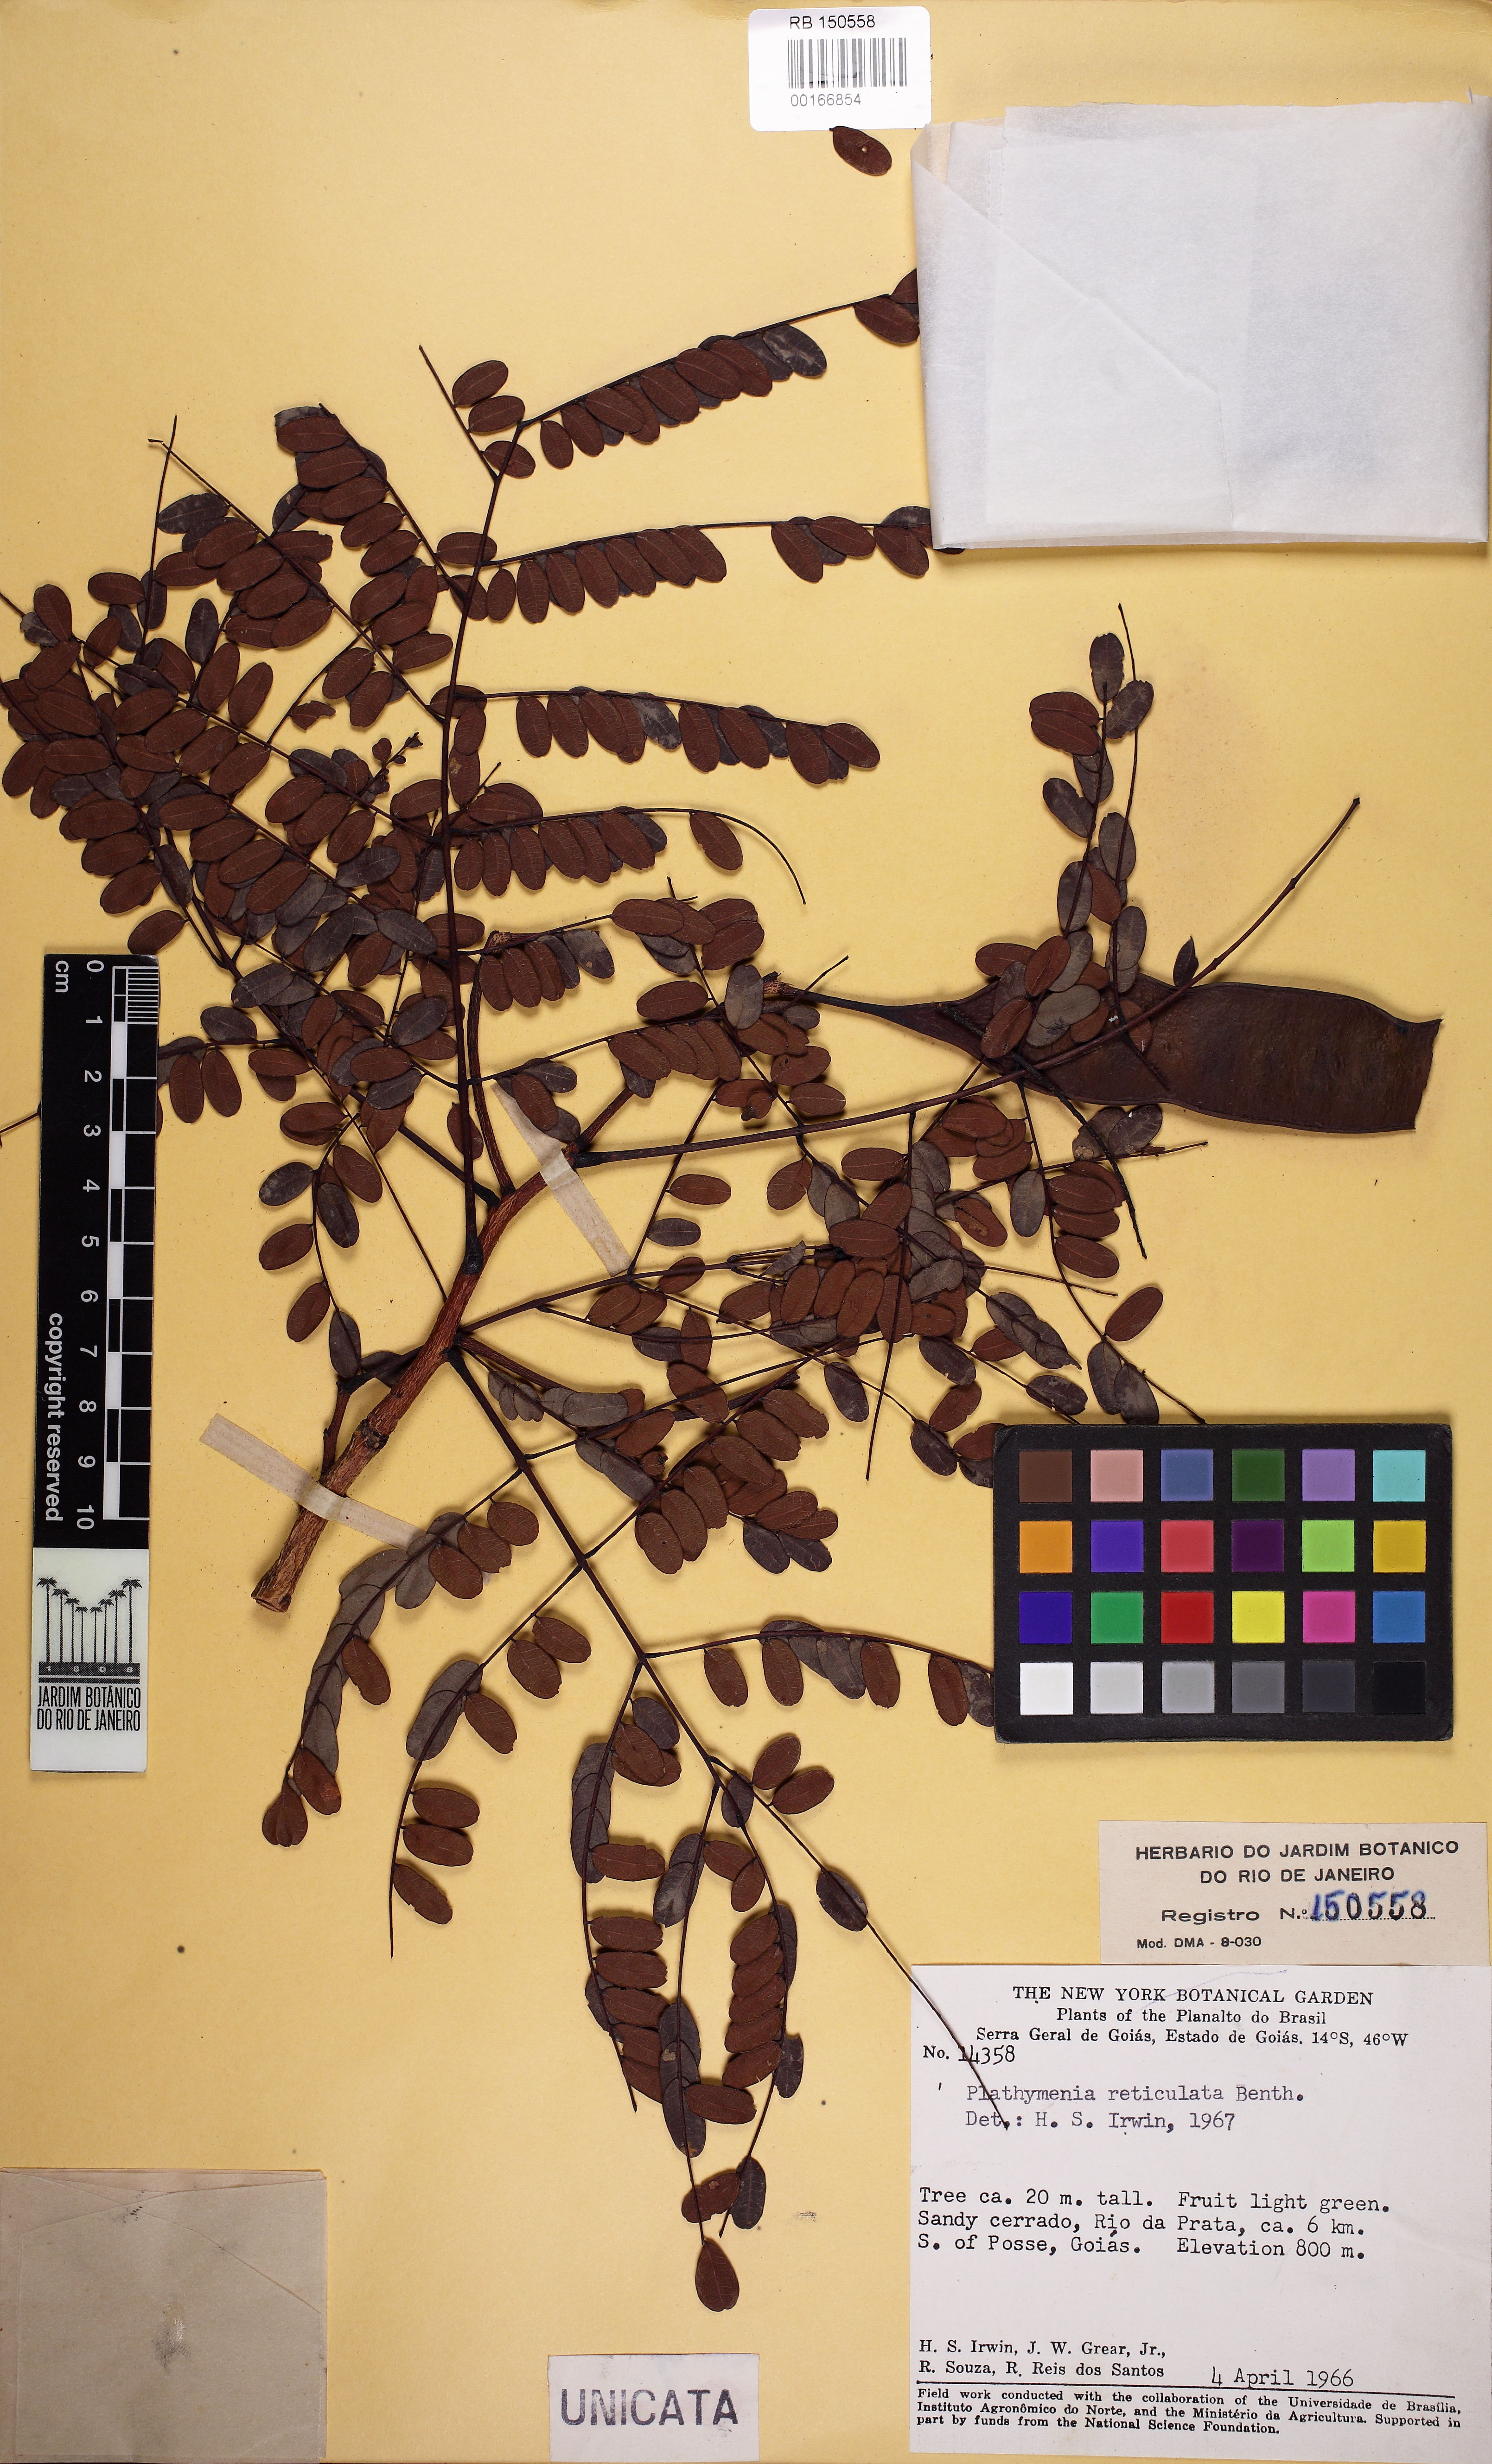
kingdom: Plantae
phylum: Tracheophyta
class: Magnoliopsida
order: Fabales
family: Fabaceae
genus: Plathymenia
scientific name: Plathymenia reticulata
